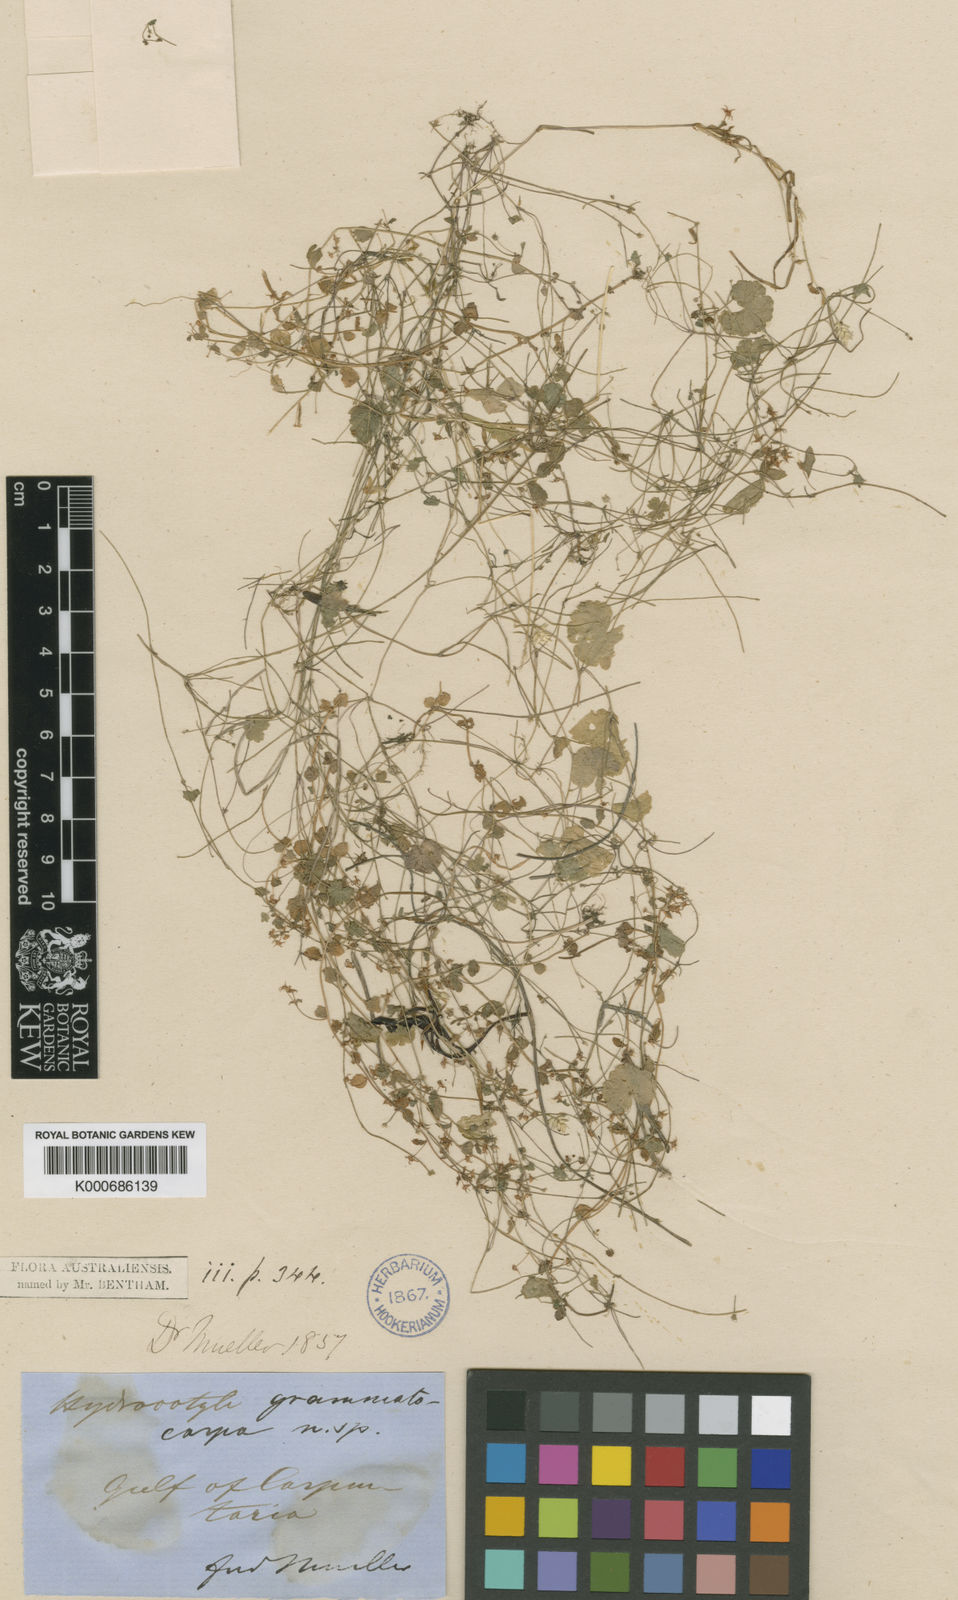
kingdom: Plantae
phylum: Tracheophyta
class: Magnoliopsida
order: Apiales
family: Araliaceae
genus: Hydrocotyle
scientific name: Hydrocotyle grammatocarpa
